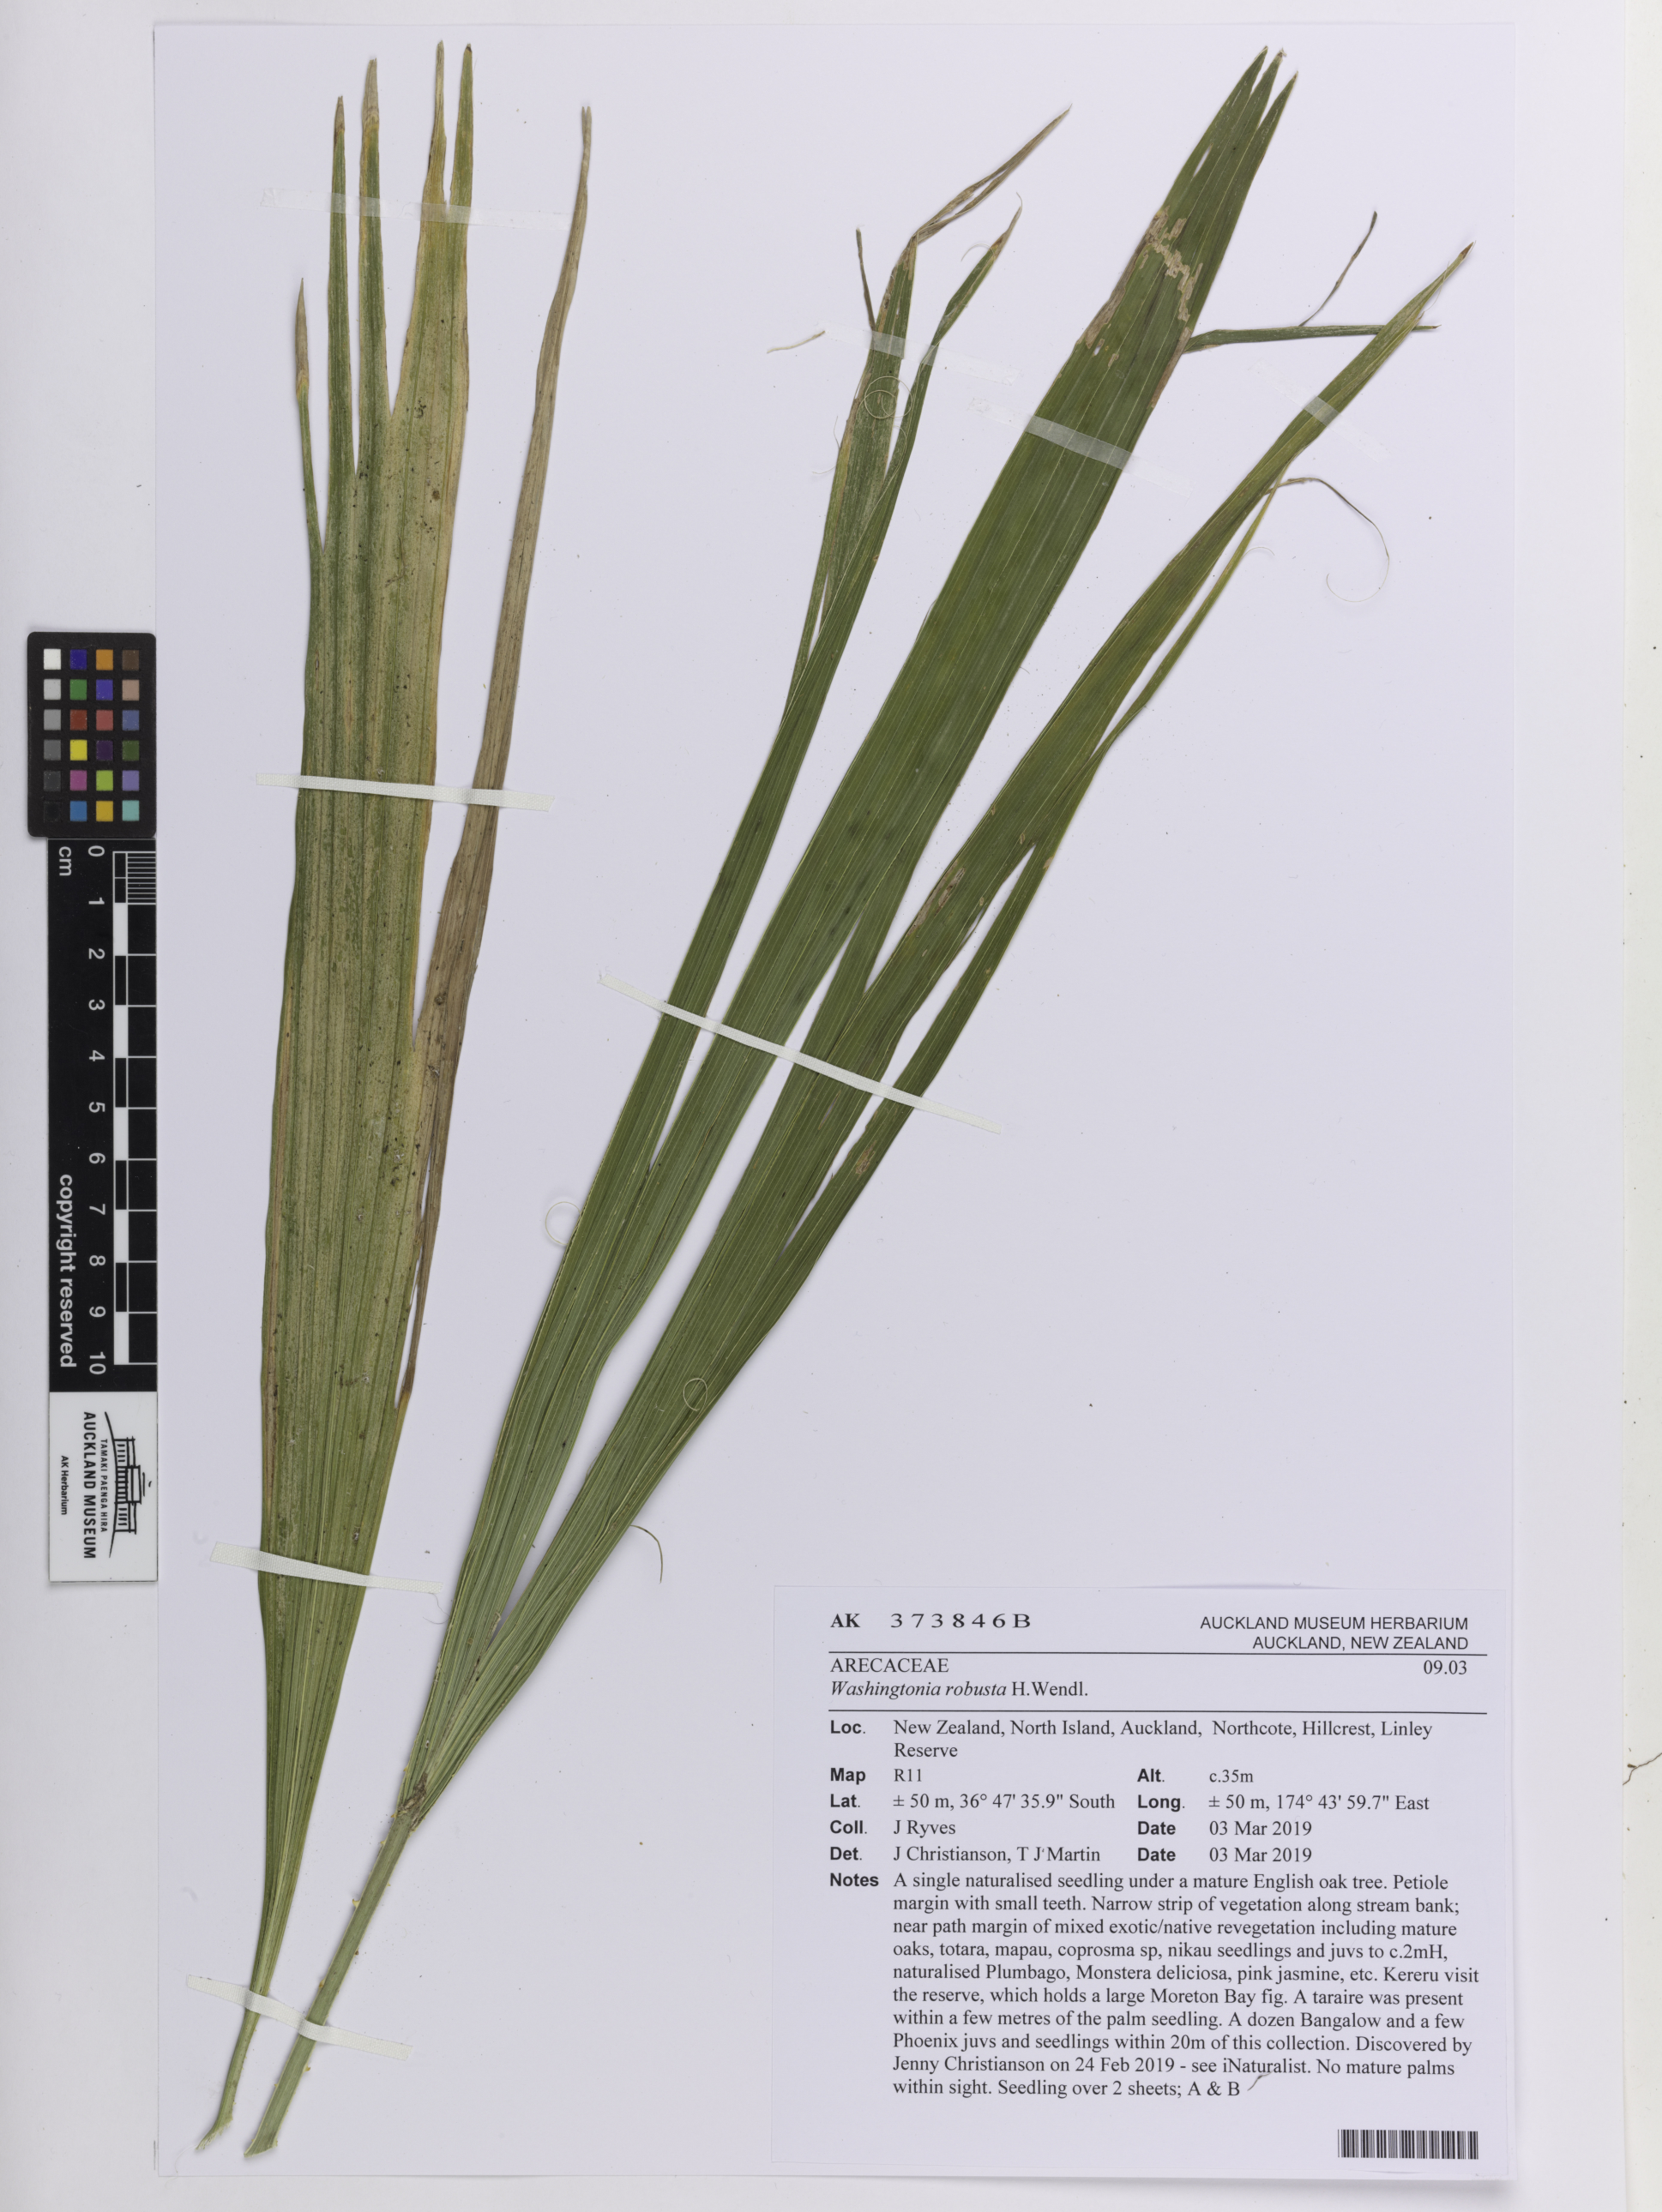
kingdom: Plantae
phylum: Tracheophyta
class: Liliopsida
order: Arecales
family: Arecaceae
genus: Washingtonia
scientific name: Washingtonia robusta
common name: Mexican fan palm
